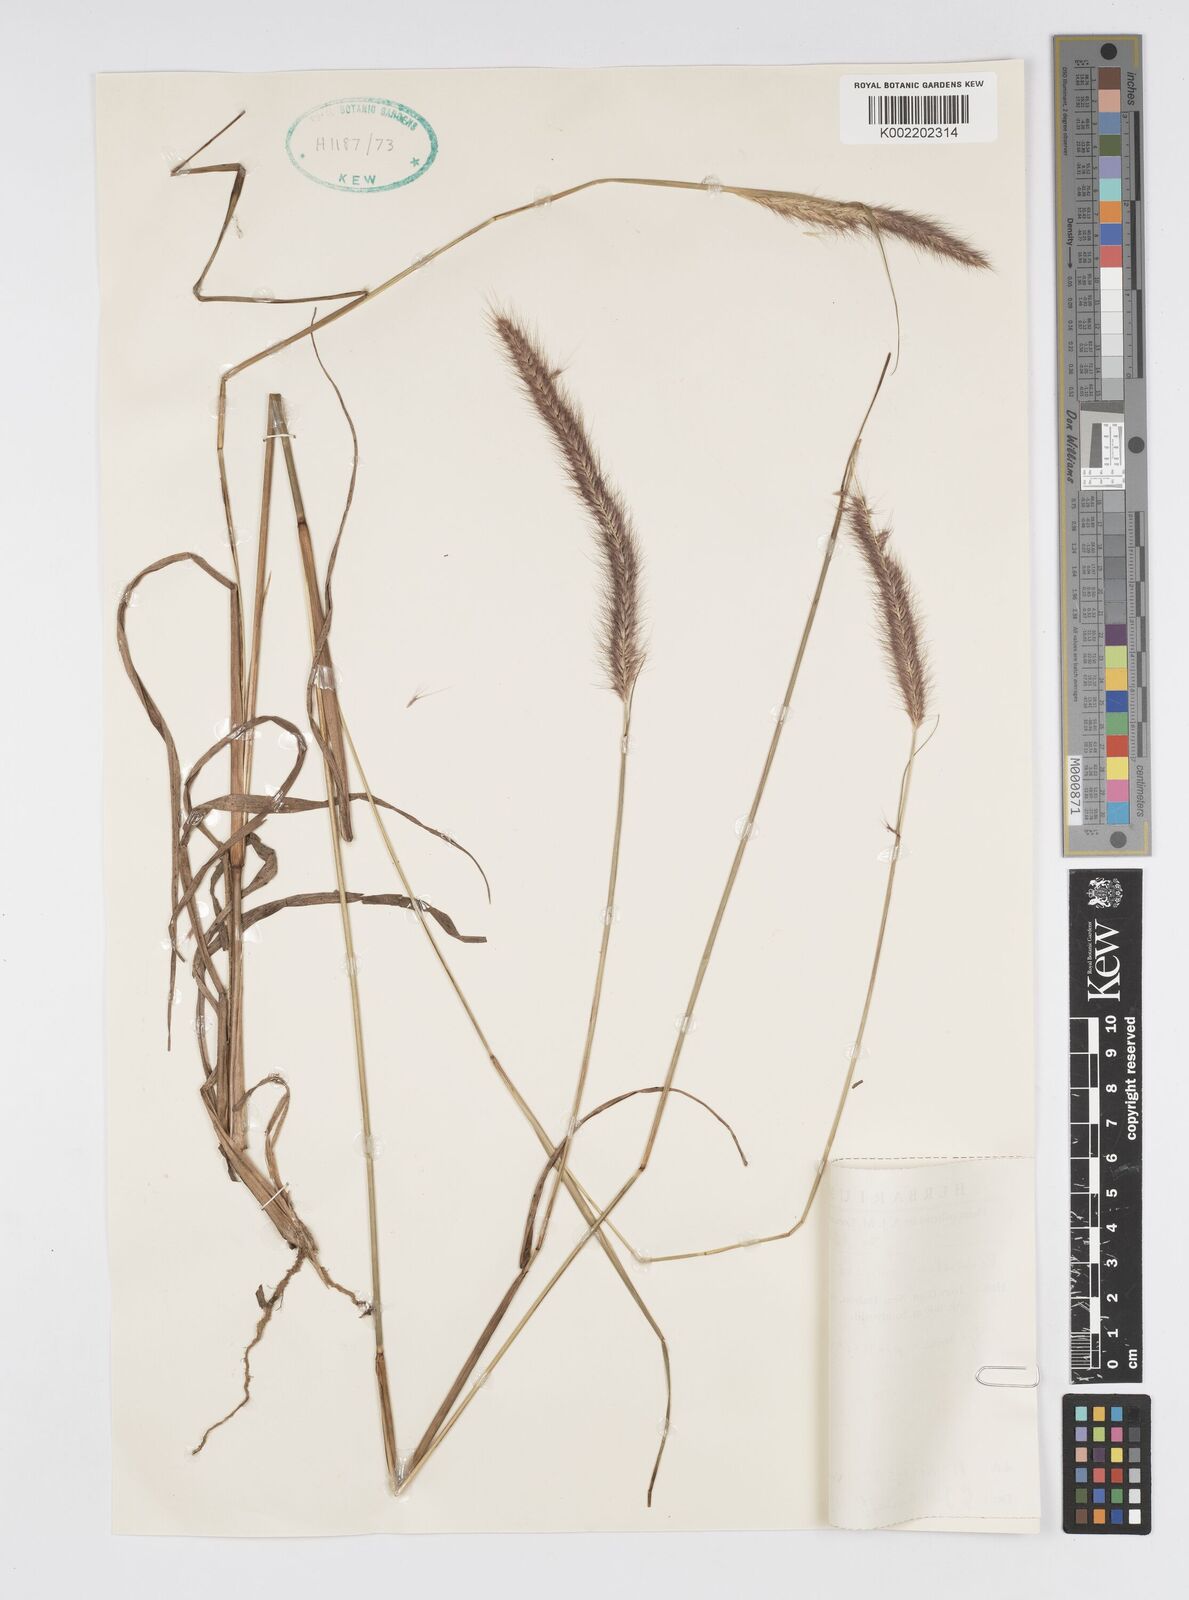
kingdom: Plantae
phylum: Tracheophyta
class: Liliopsida
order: Poales
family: Poaceae
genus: Setaria
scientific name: Setaria parviflora
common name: Knotroot bristle-grass
